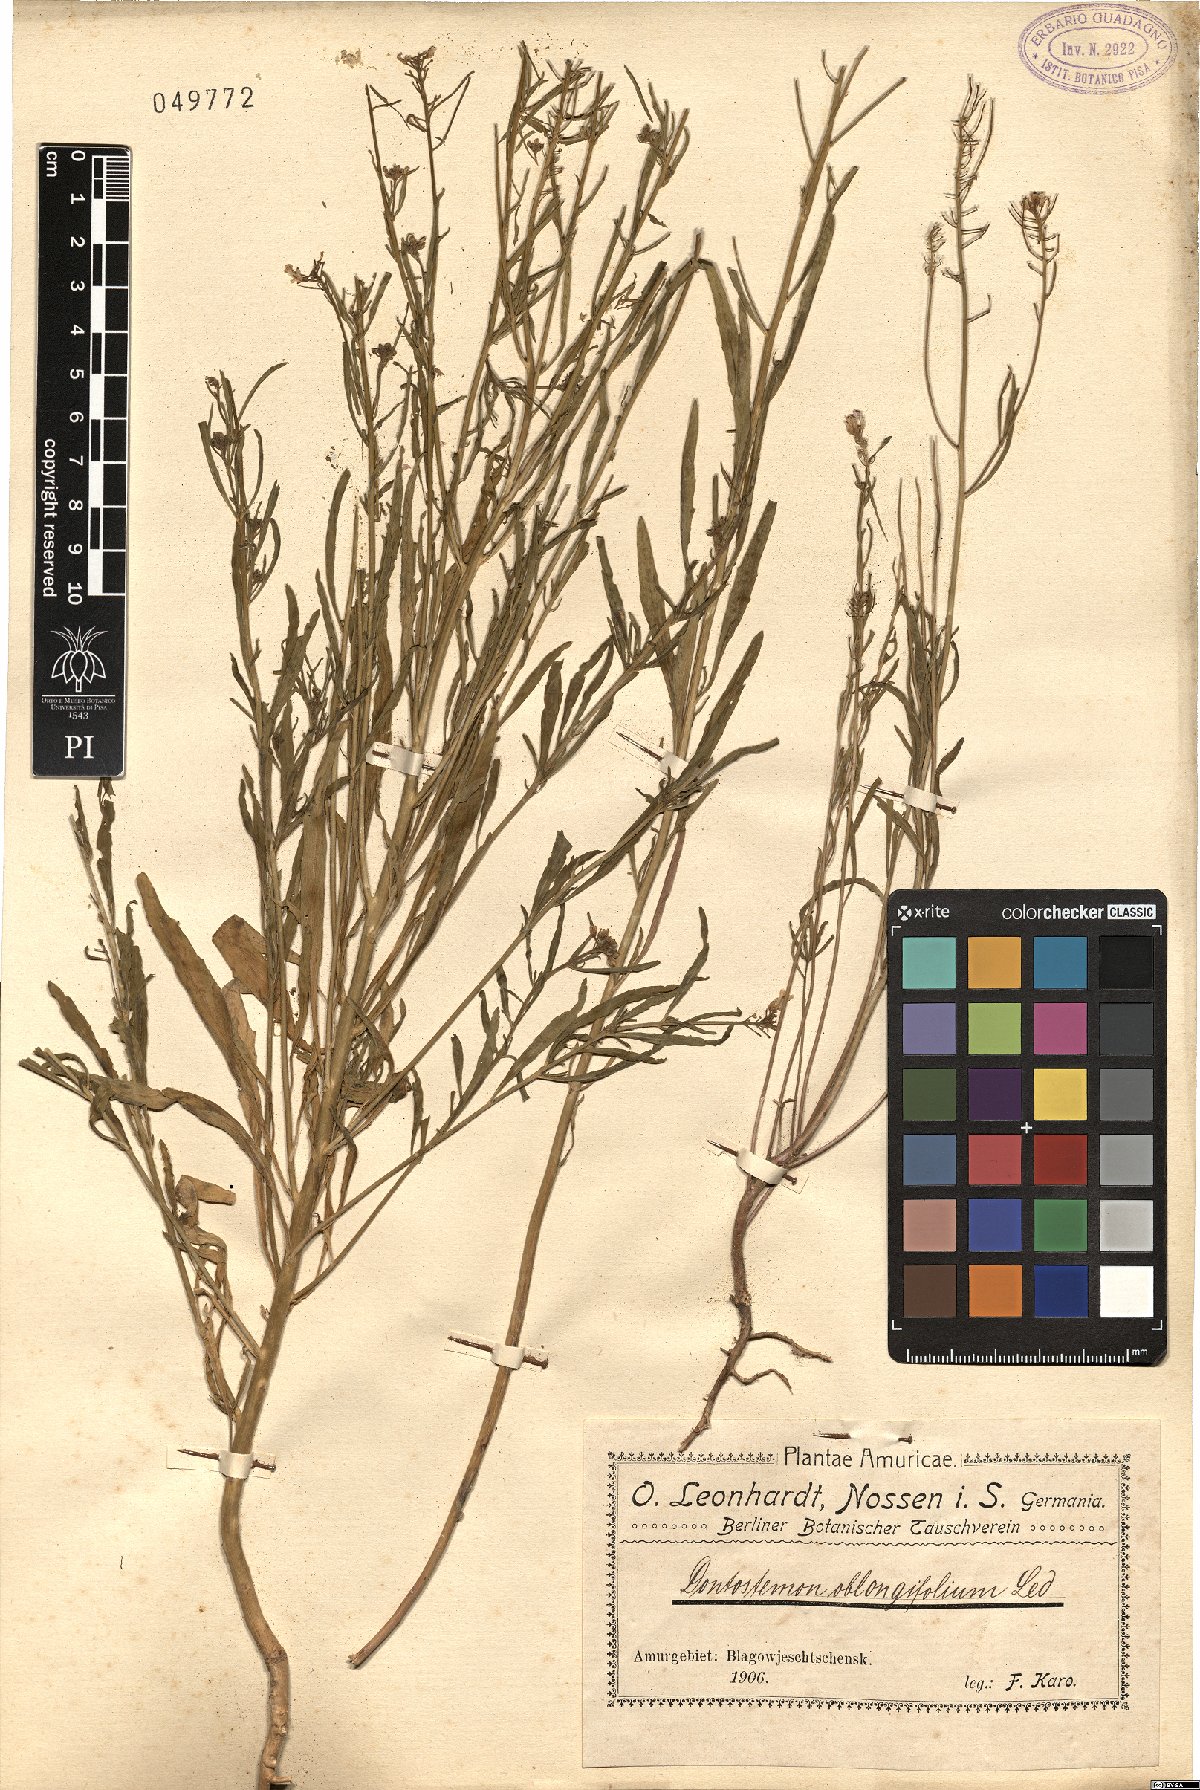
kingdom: Plantae
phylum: Tracheophyta
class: Magnoliopsida
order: Brassicales
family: Brassicaceae
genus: Dontostemon
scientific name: Dontostemon dentatus
